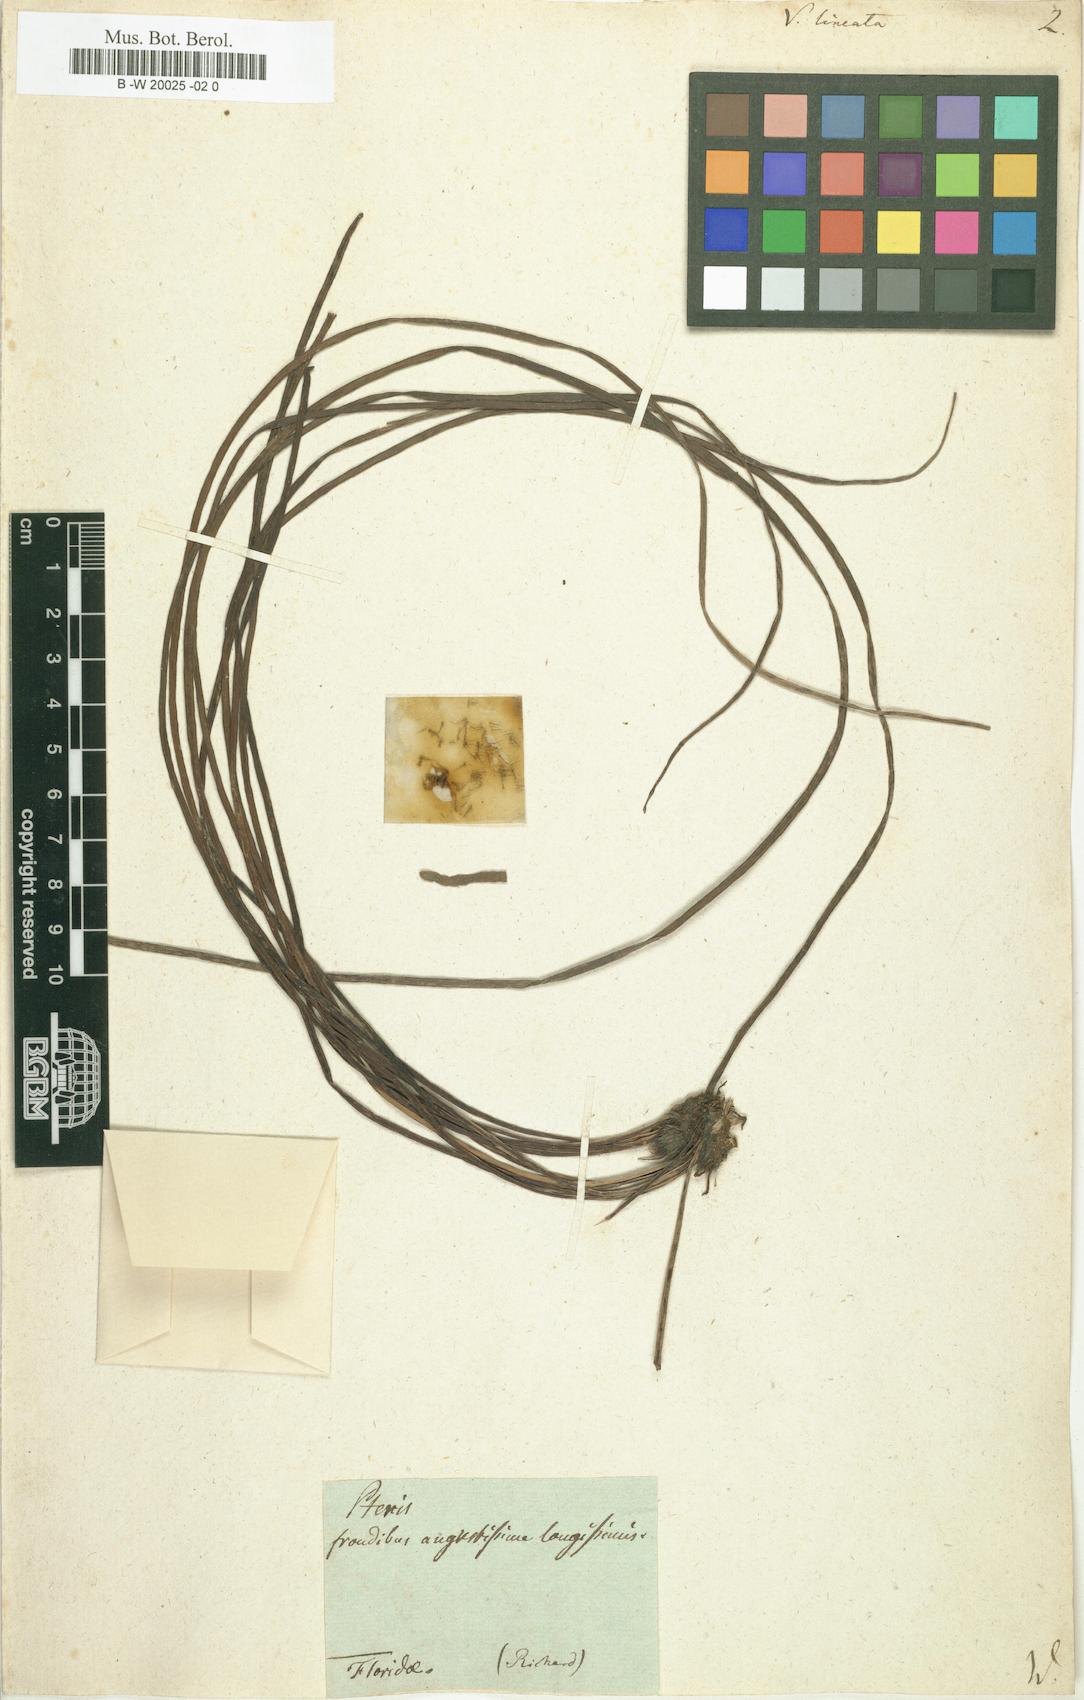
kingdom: Plantae
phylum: Tracheophyta
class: Polypodiopsida
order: Polypodiales
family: Pteridaceae
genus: Vittaria
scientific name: Vittaria lineata
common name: Shoestring fern
